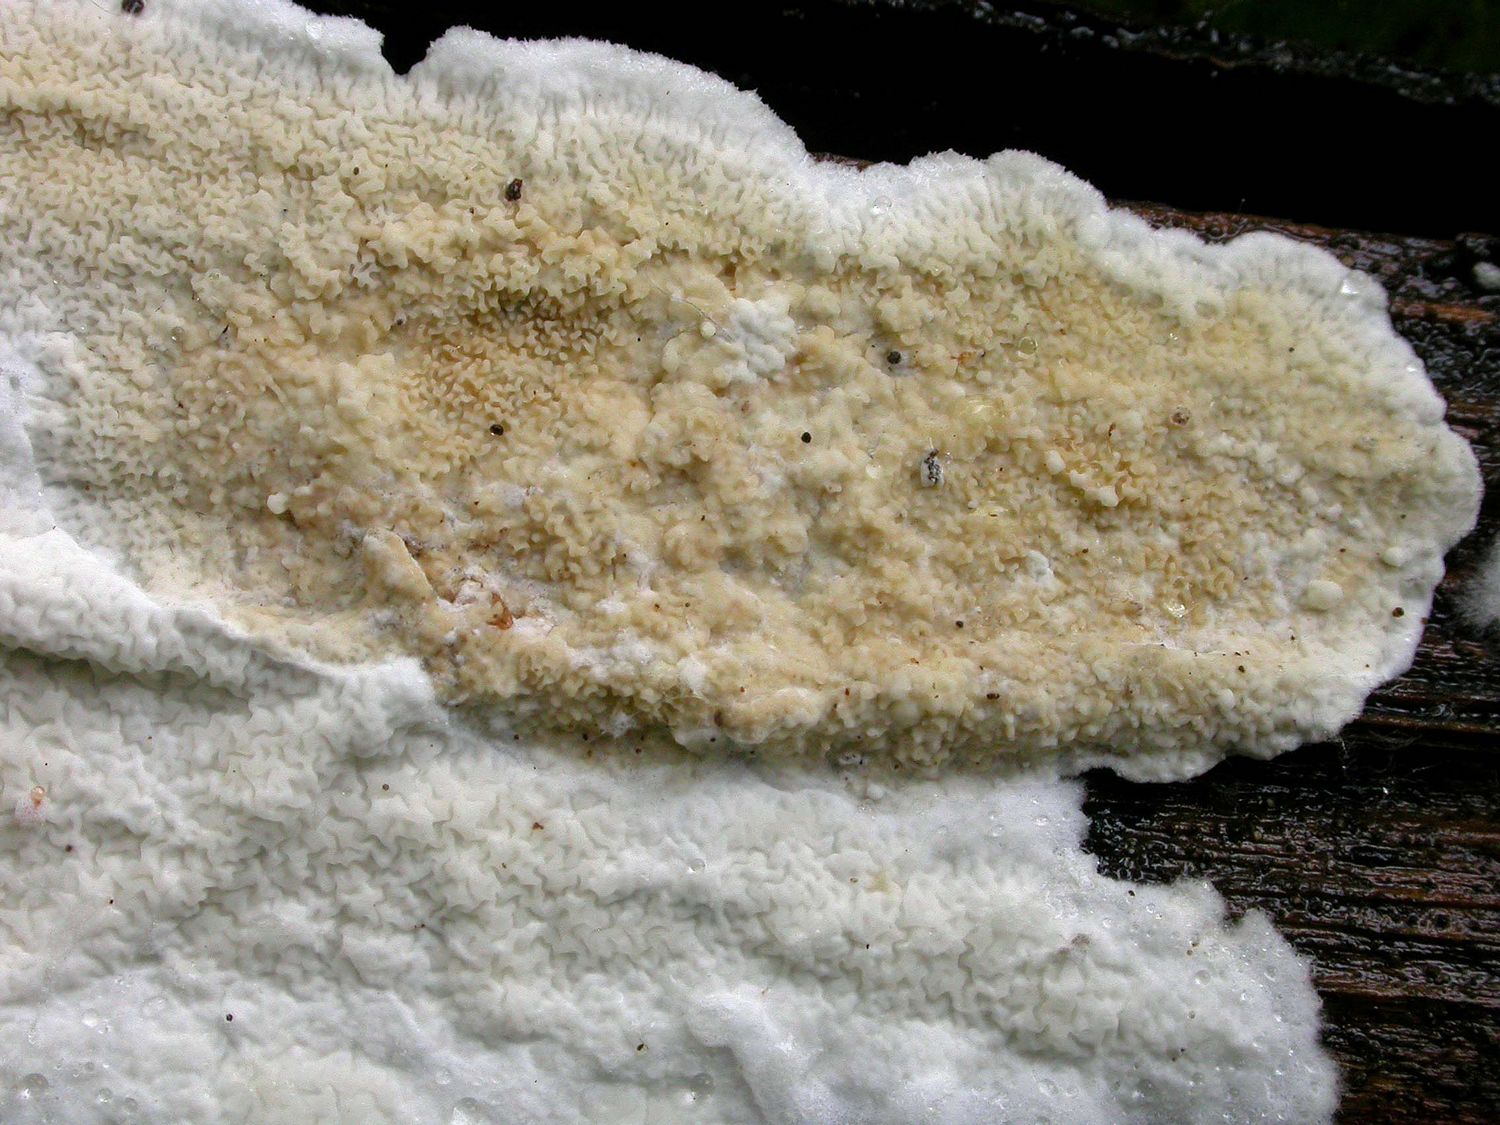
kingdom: Fungi
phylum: Basidiomycota
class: Agaricomycetes
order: Polyporales
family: Irpicaceae
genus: Byssomerulius
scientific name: Byssomerulius corium
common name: læder-åresvamp
